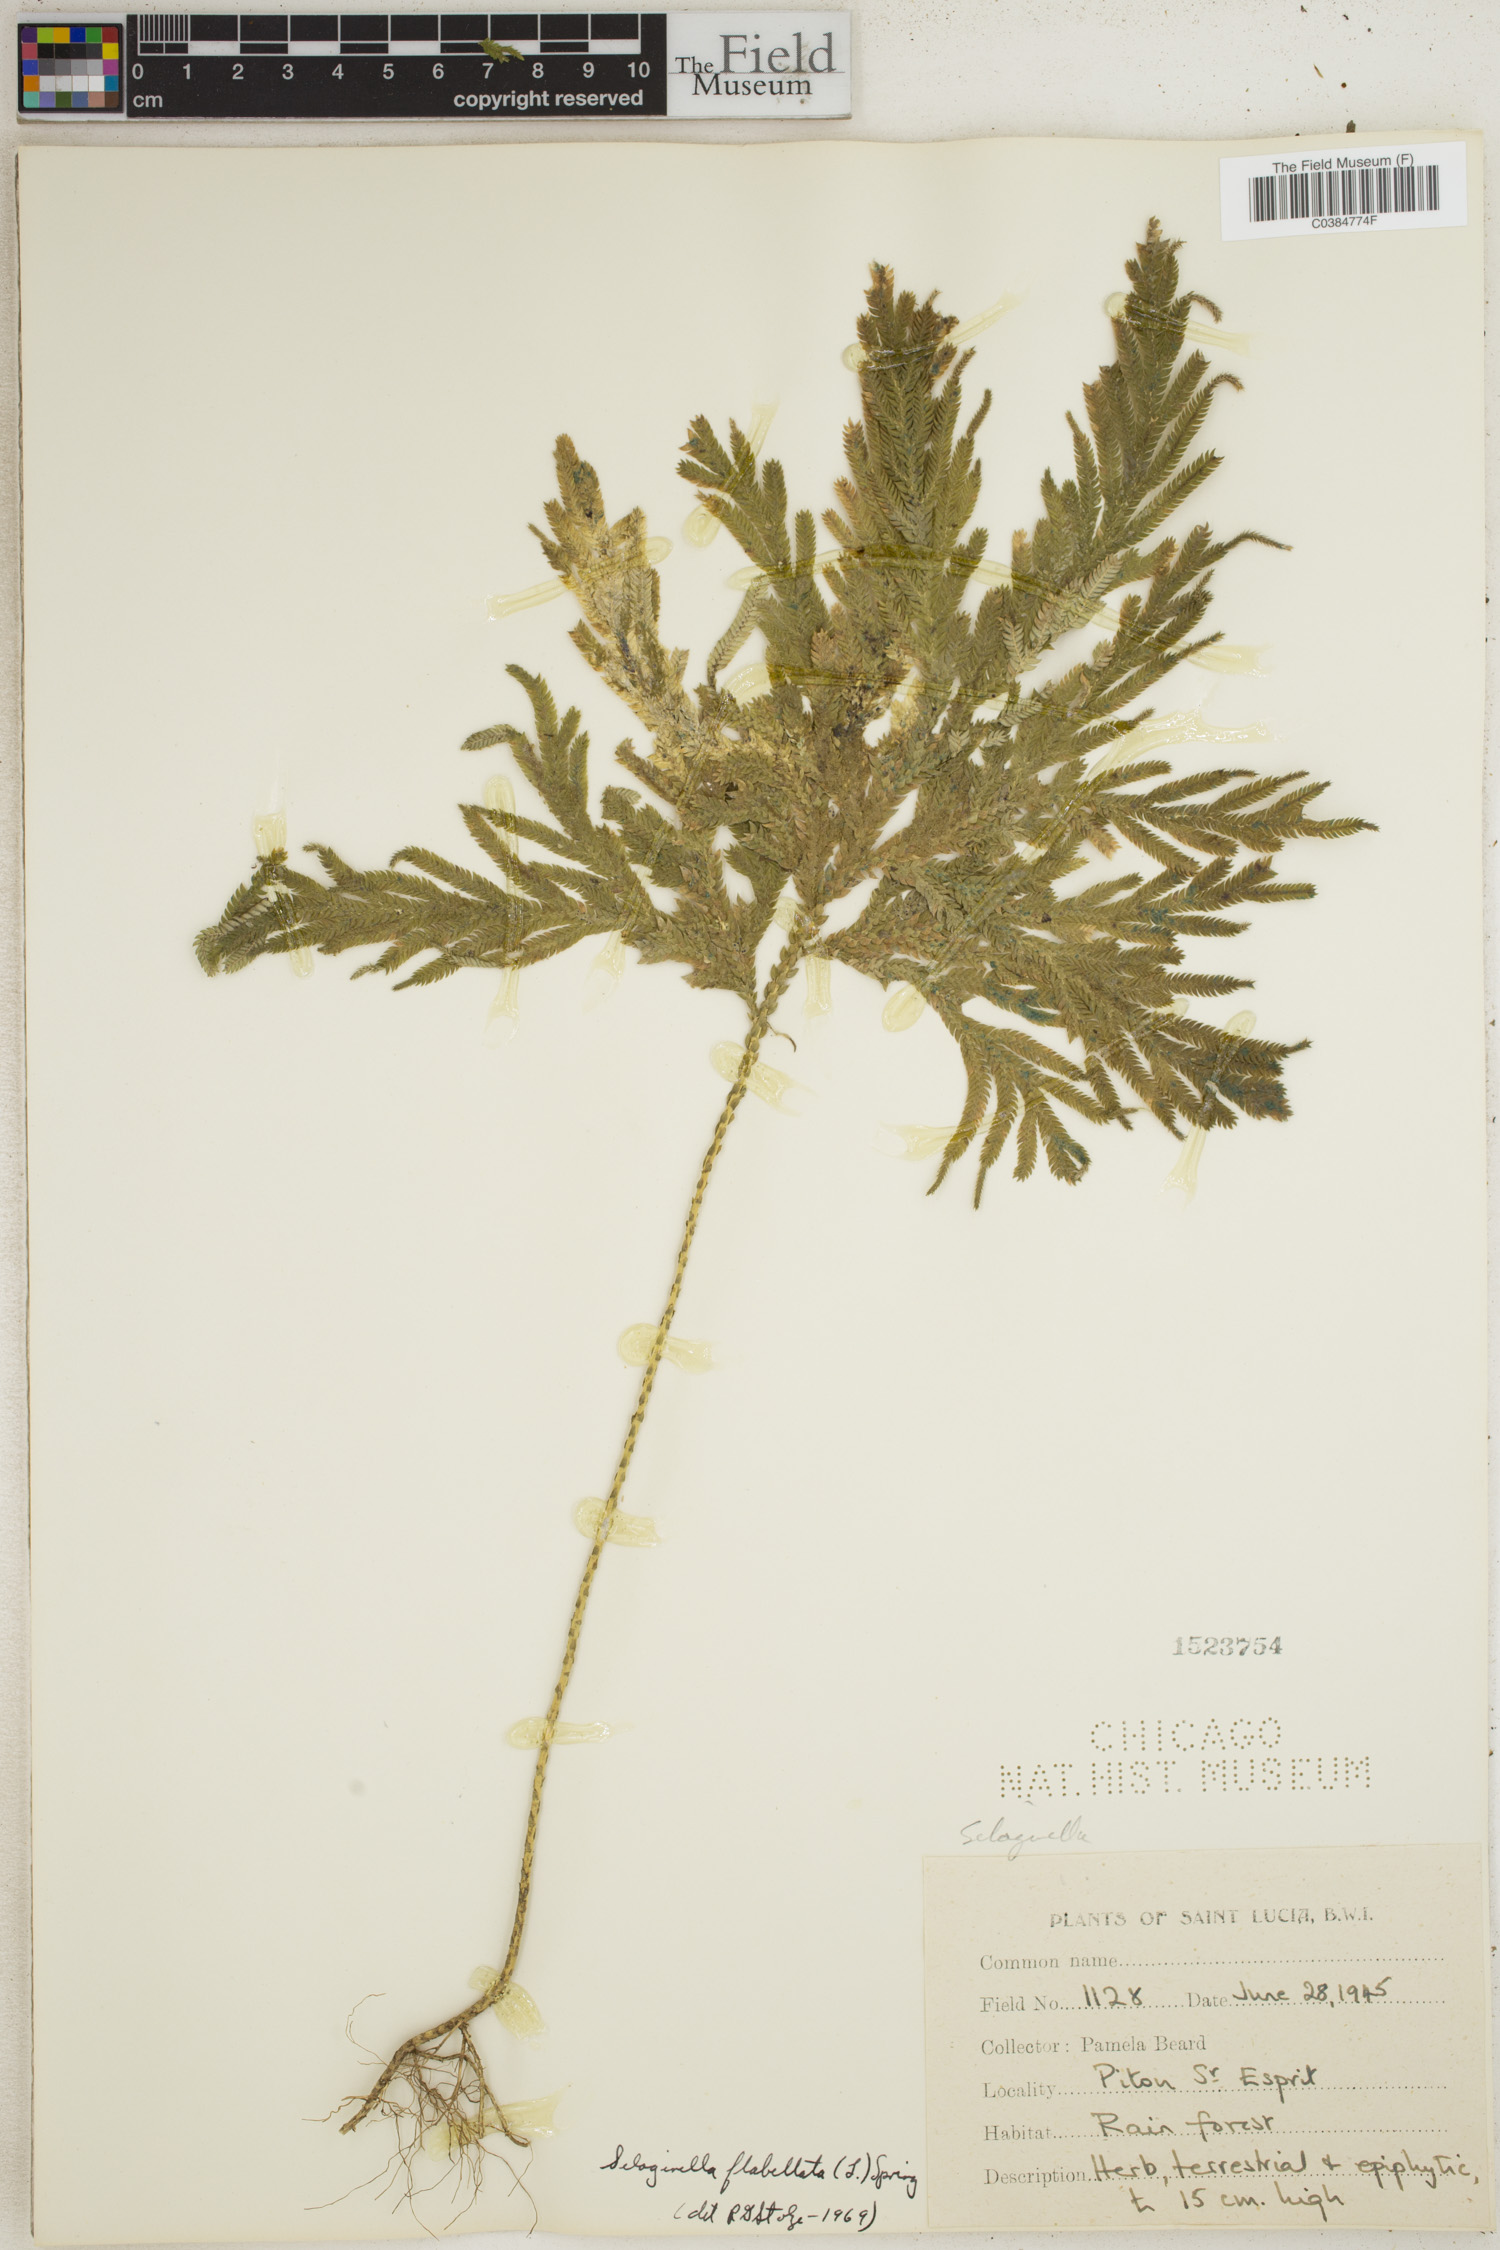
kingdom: Plantae
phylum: Tracheophyta
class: Lycopodiopsida
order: Selaginellales
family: Selaginellaceae
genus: Selaginella
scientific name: Selaginella flabellata
